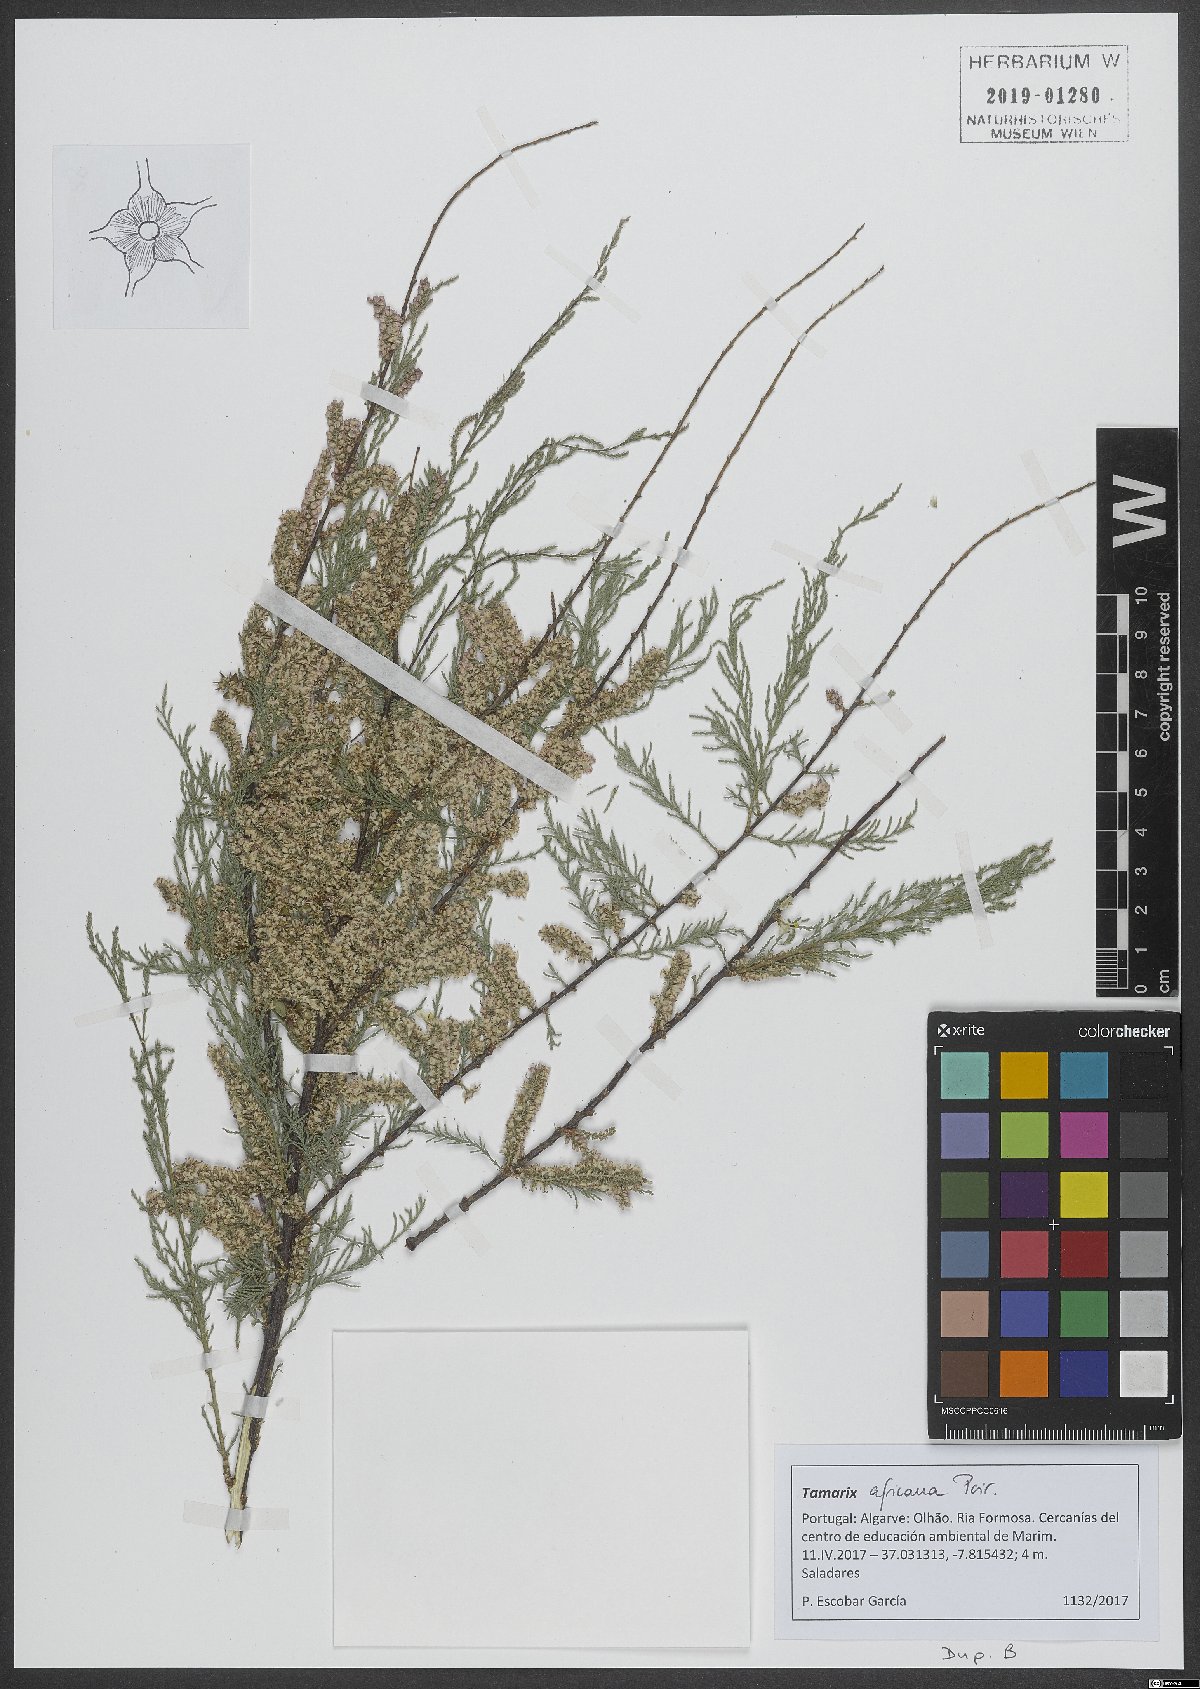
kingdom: Plantae
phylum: Tracheophyta
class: Magnoliopsida
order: Caryophyllales
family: Tamaricaceae
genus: Tamarix
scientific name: Tamarix africana
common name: African tamarisk
